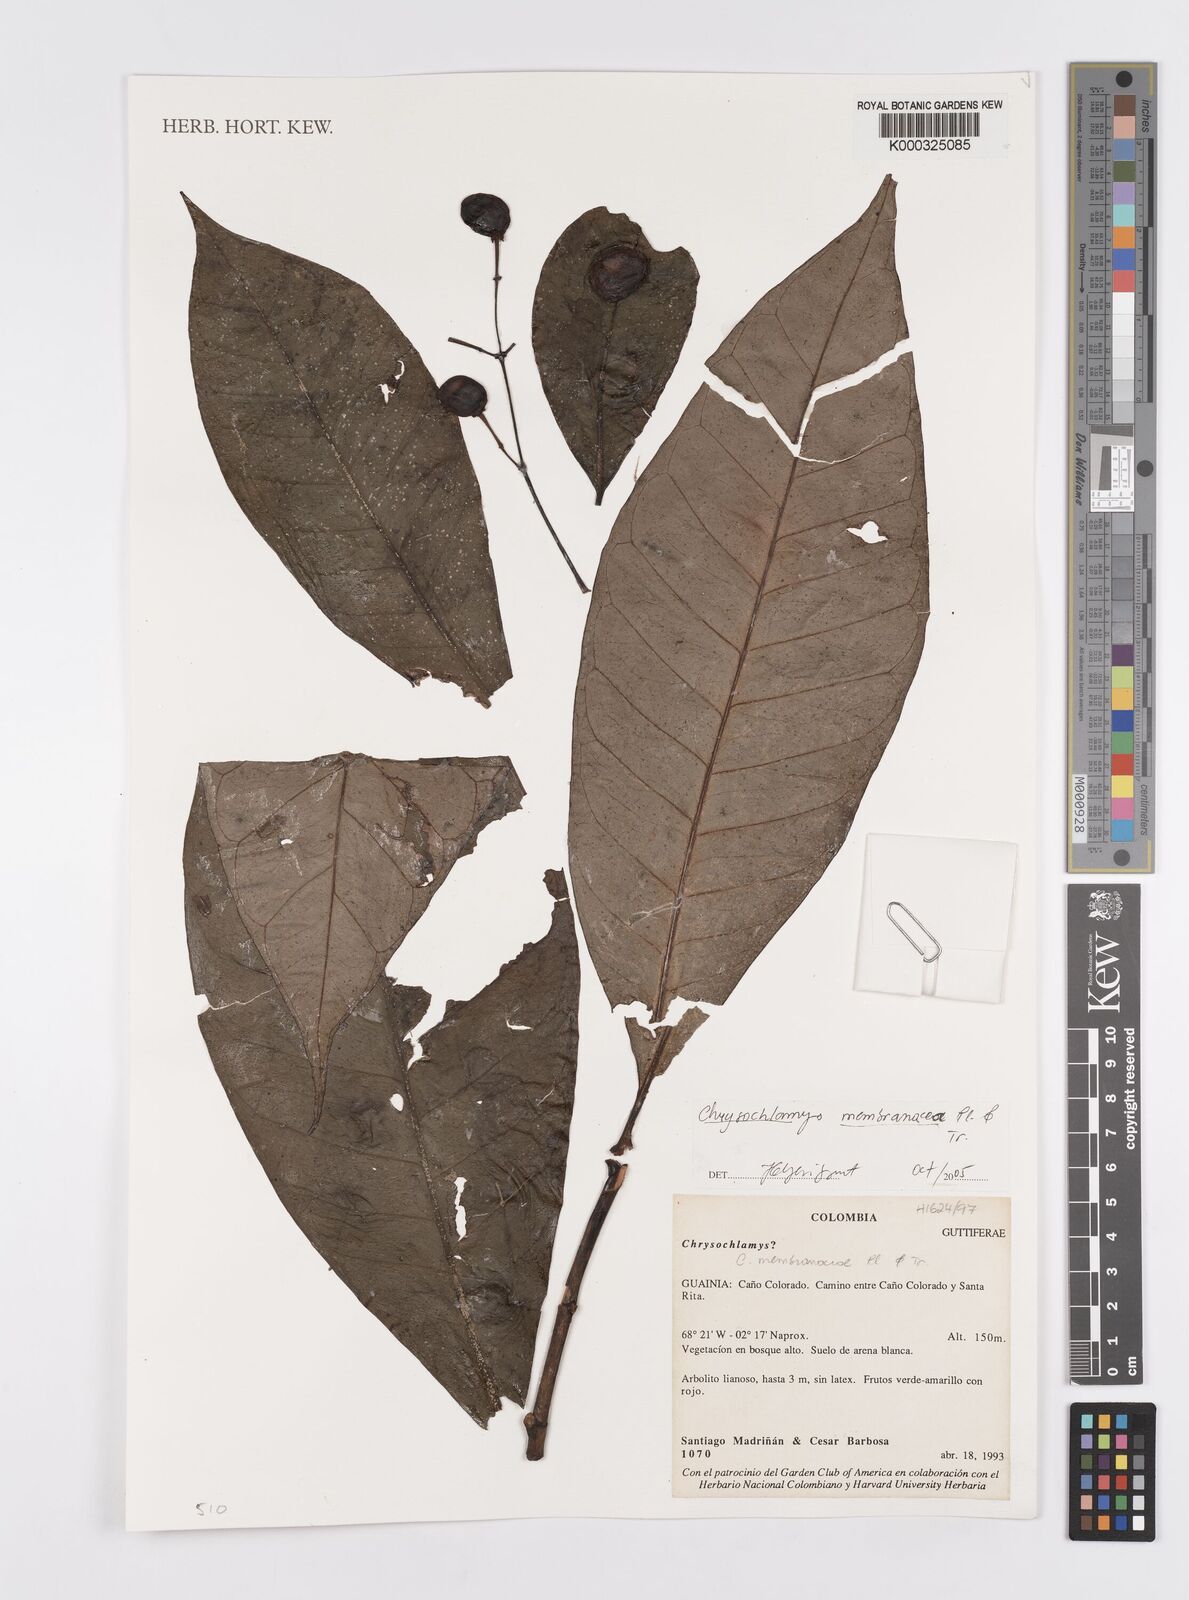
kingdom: Plantae
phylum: Tracheophyta
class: Magnoliopsida
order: Malpighiales
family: Clusiaceae
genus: Chrysochlamys
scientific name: Chrysochlamys
